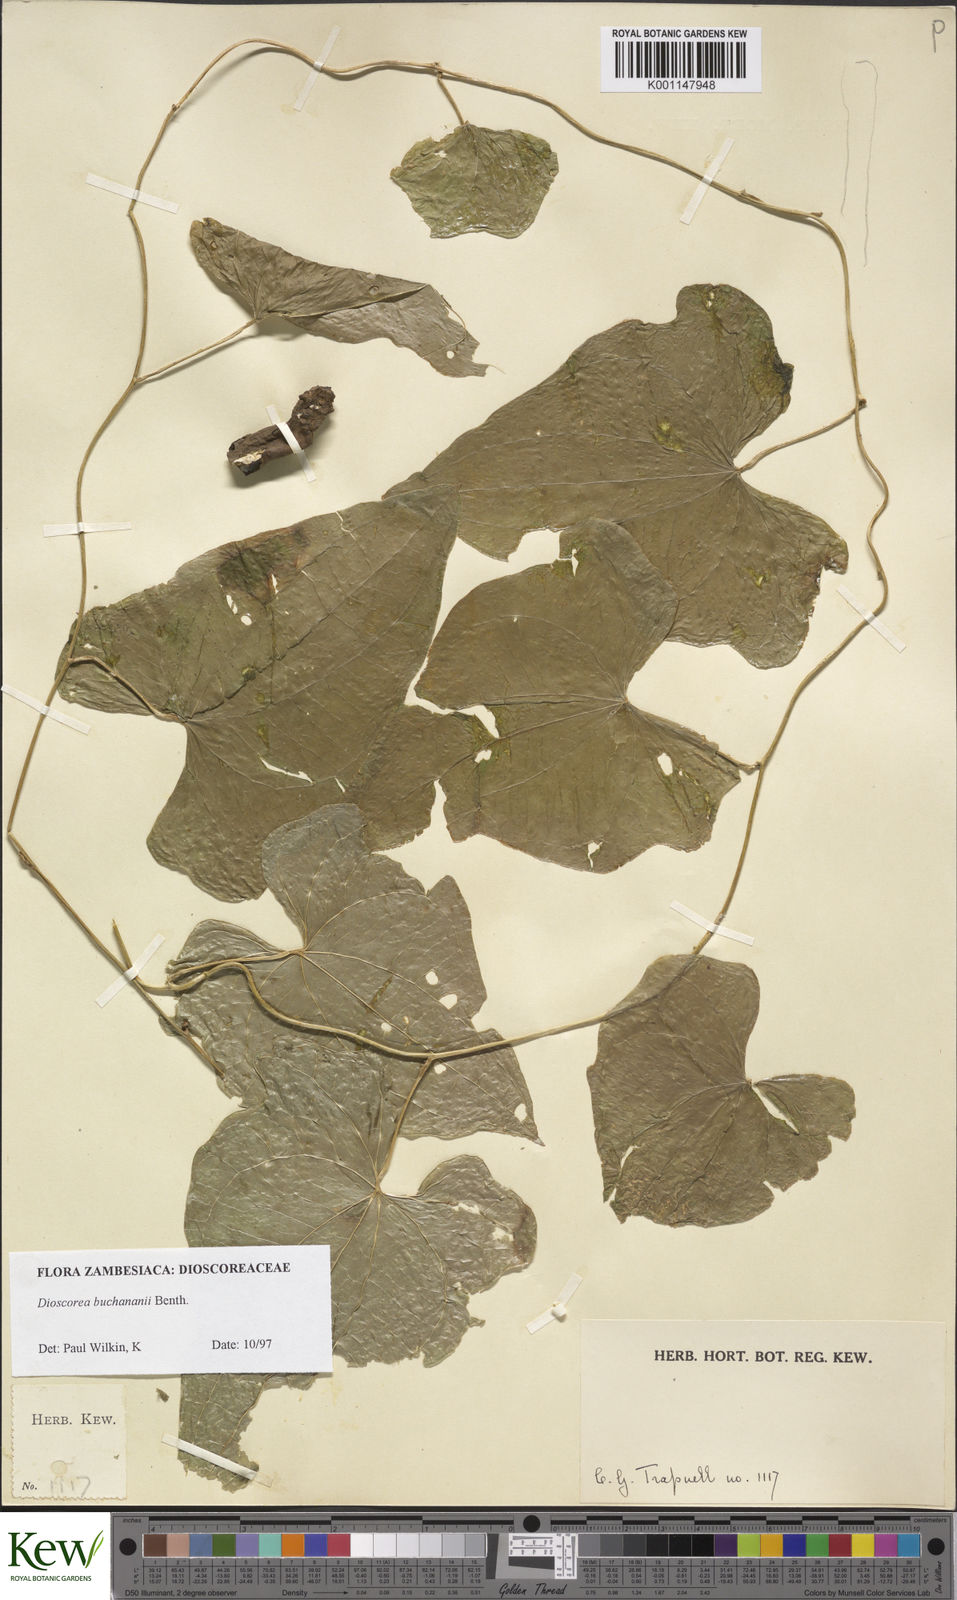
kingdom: Plantae
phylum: Tracheophyta
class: Liliopsida
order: Dioscoreales
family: Dioscoreaceae
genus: Dioscorea
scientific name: Dioscorea buchananii
